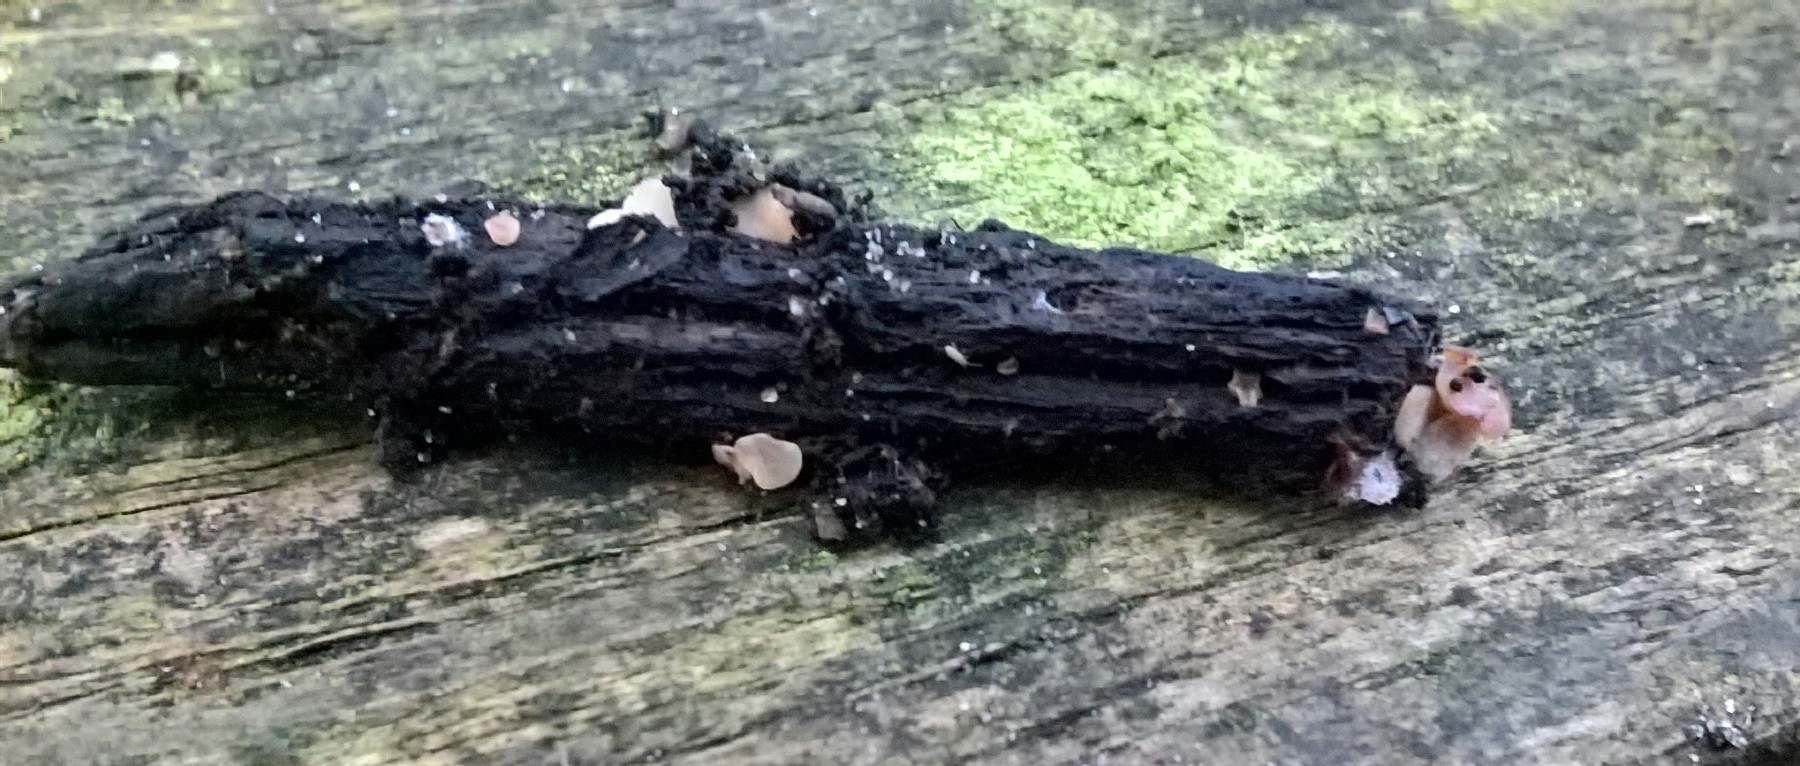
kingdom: Fungi
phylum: Ascomycota
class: Leotiomycetes
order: Helotiales
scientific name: Helotiales
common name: stilkskiveordenen
